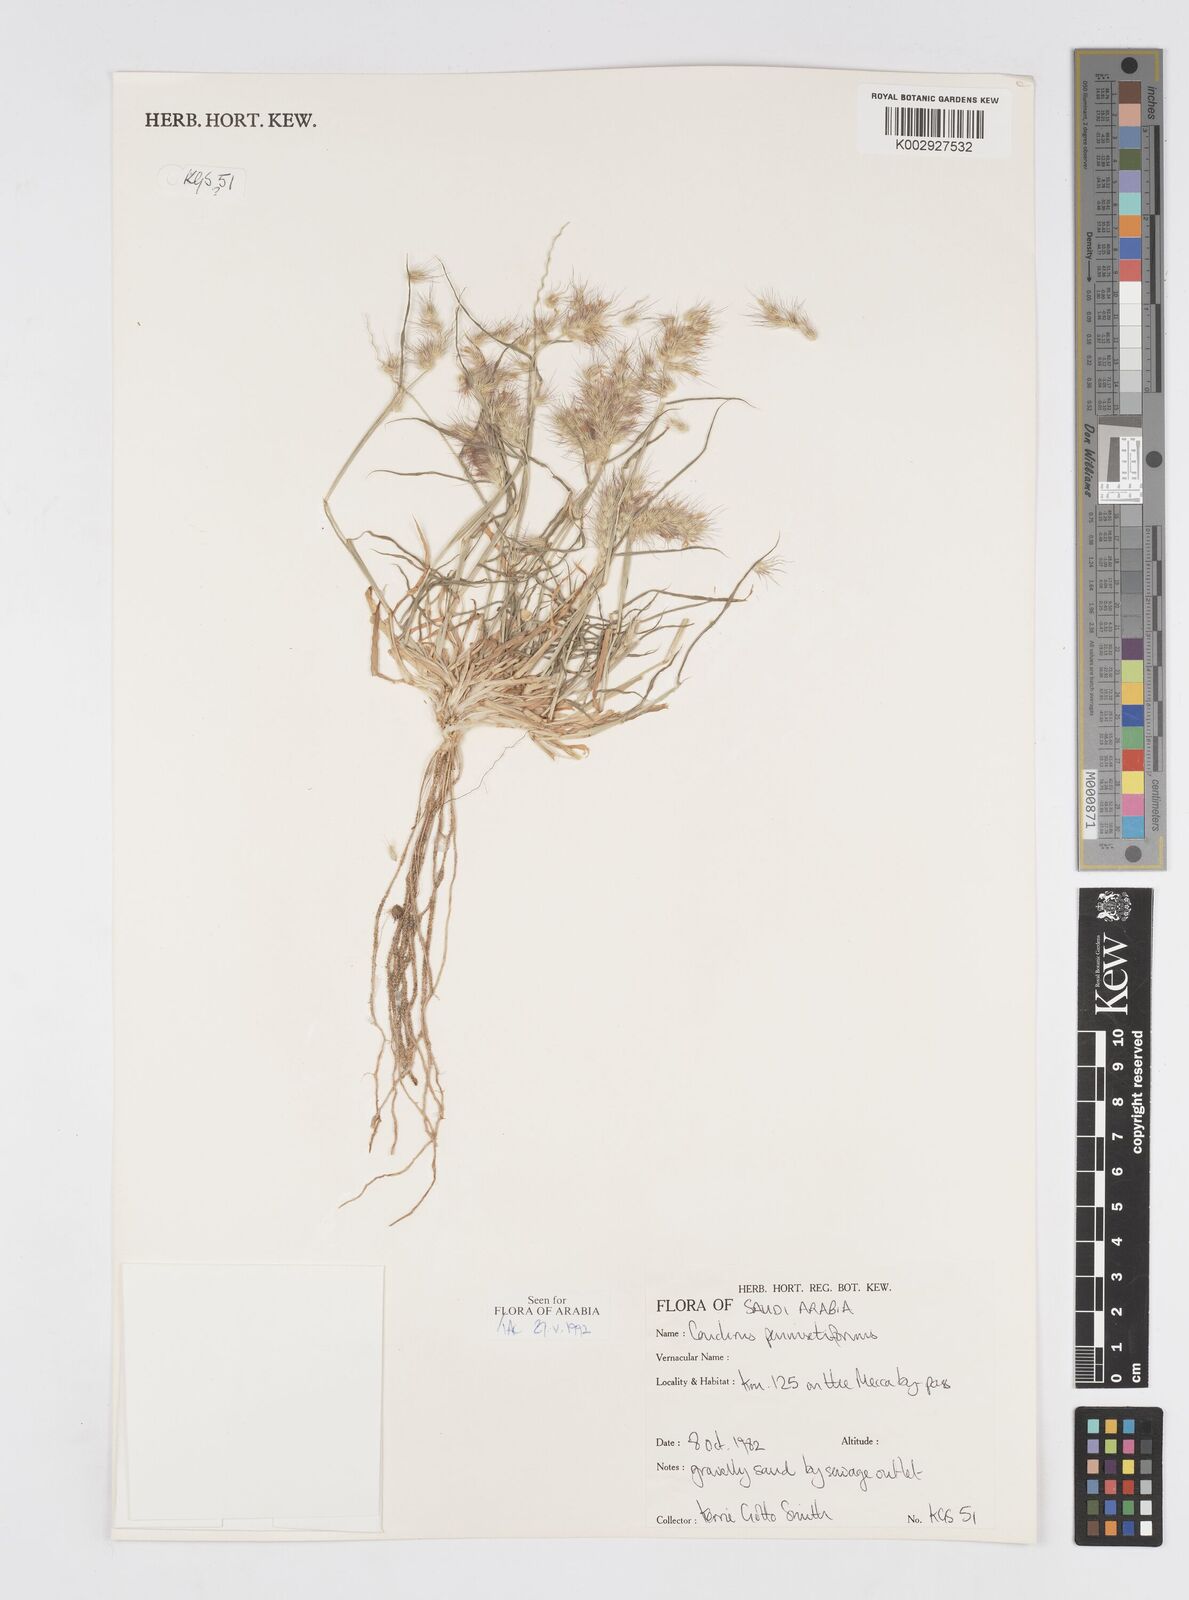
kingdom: Plantae
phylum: Tracheophyta
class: Liliopsida
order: Poales
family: Poaceae
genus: Cenchrus
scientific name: Cenchrus
